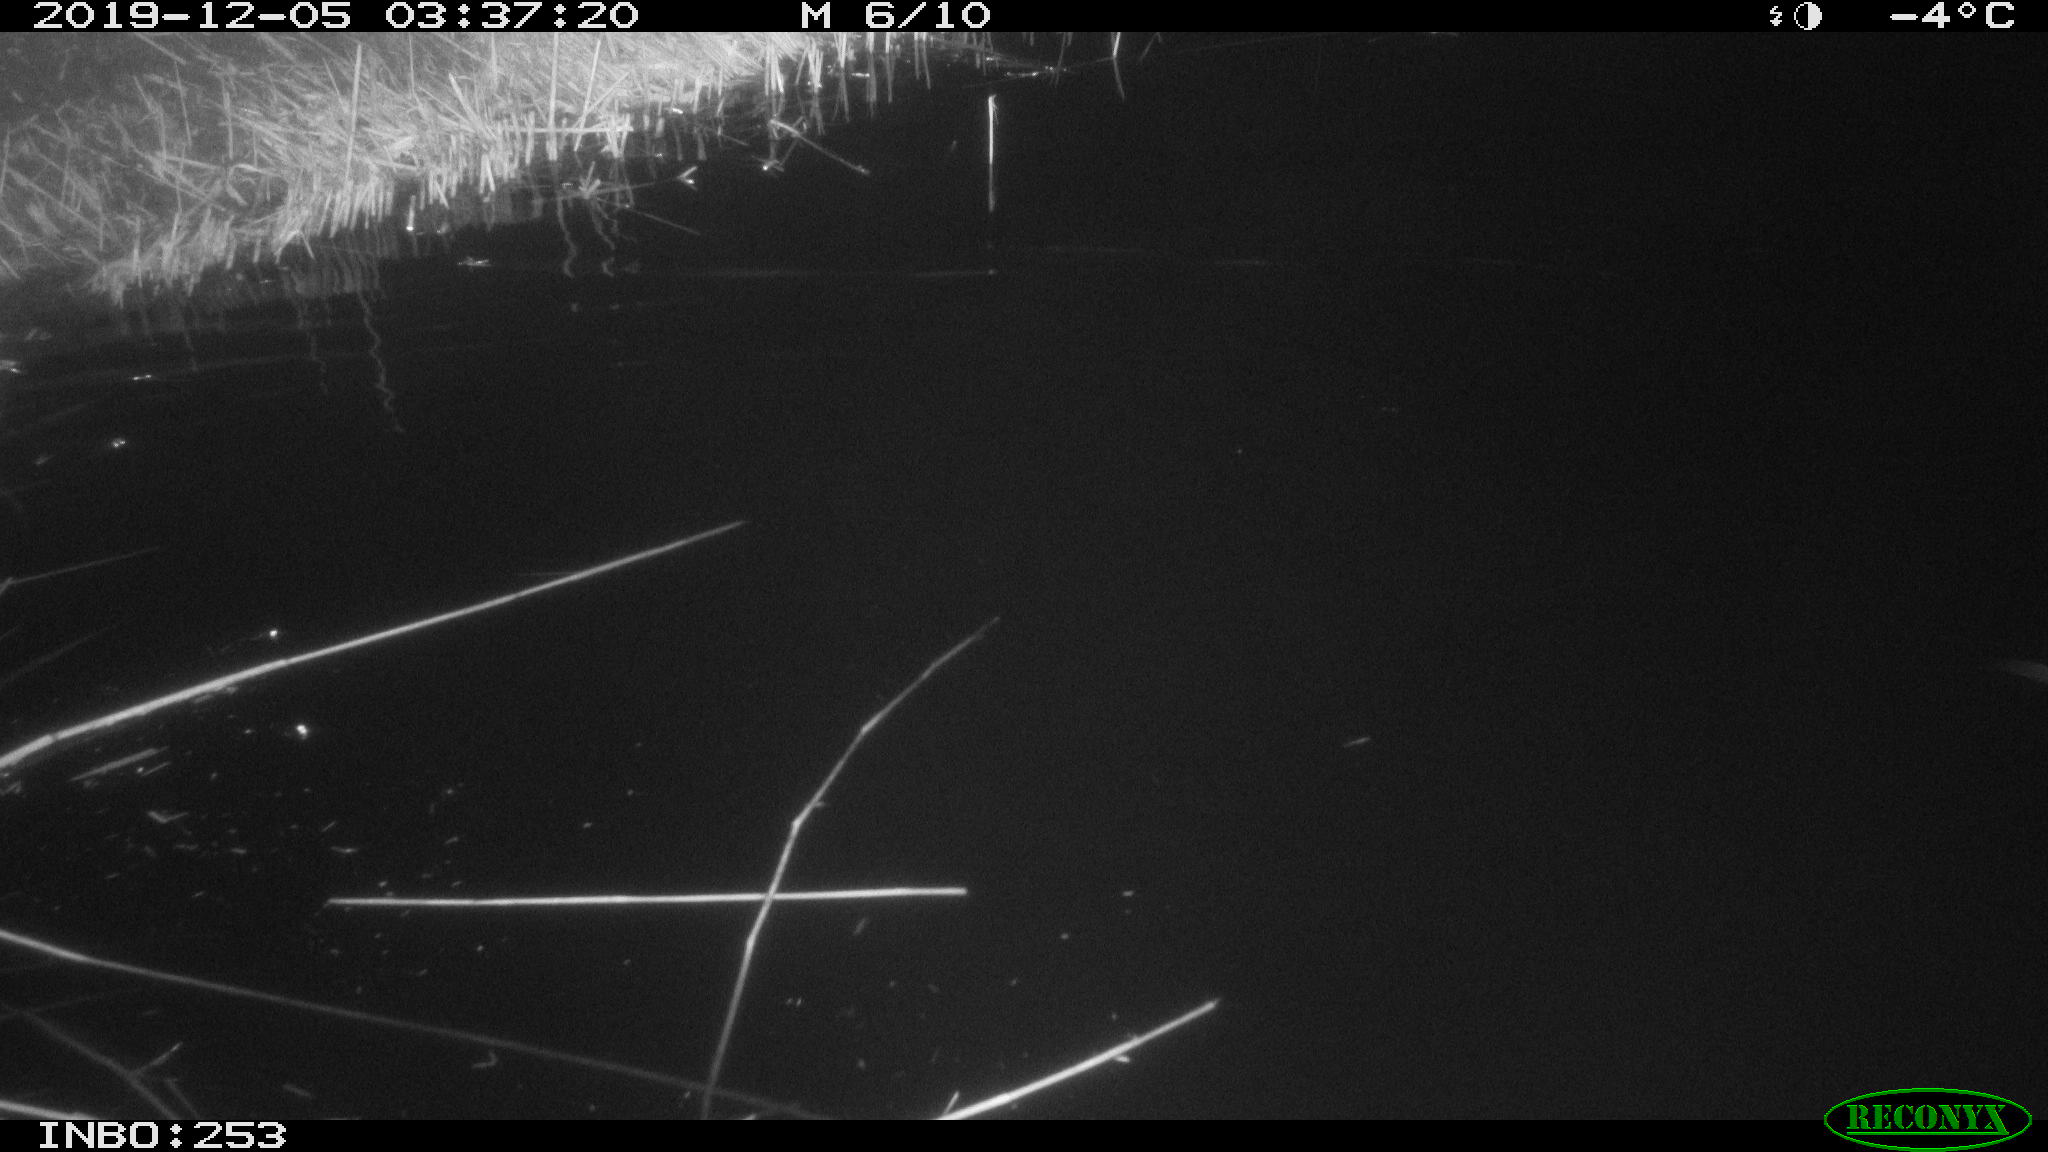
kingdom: Animalia
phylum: Chordata
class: Aves
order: Anseriformes
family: Anatidae
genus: Anser
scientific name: Anser anser
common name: Greylag goose
